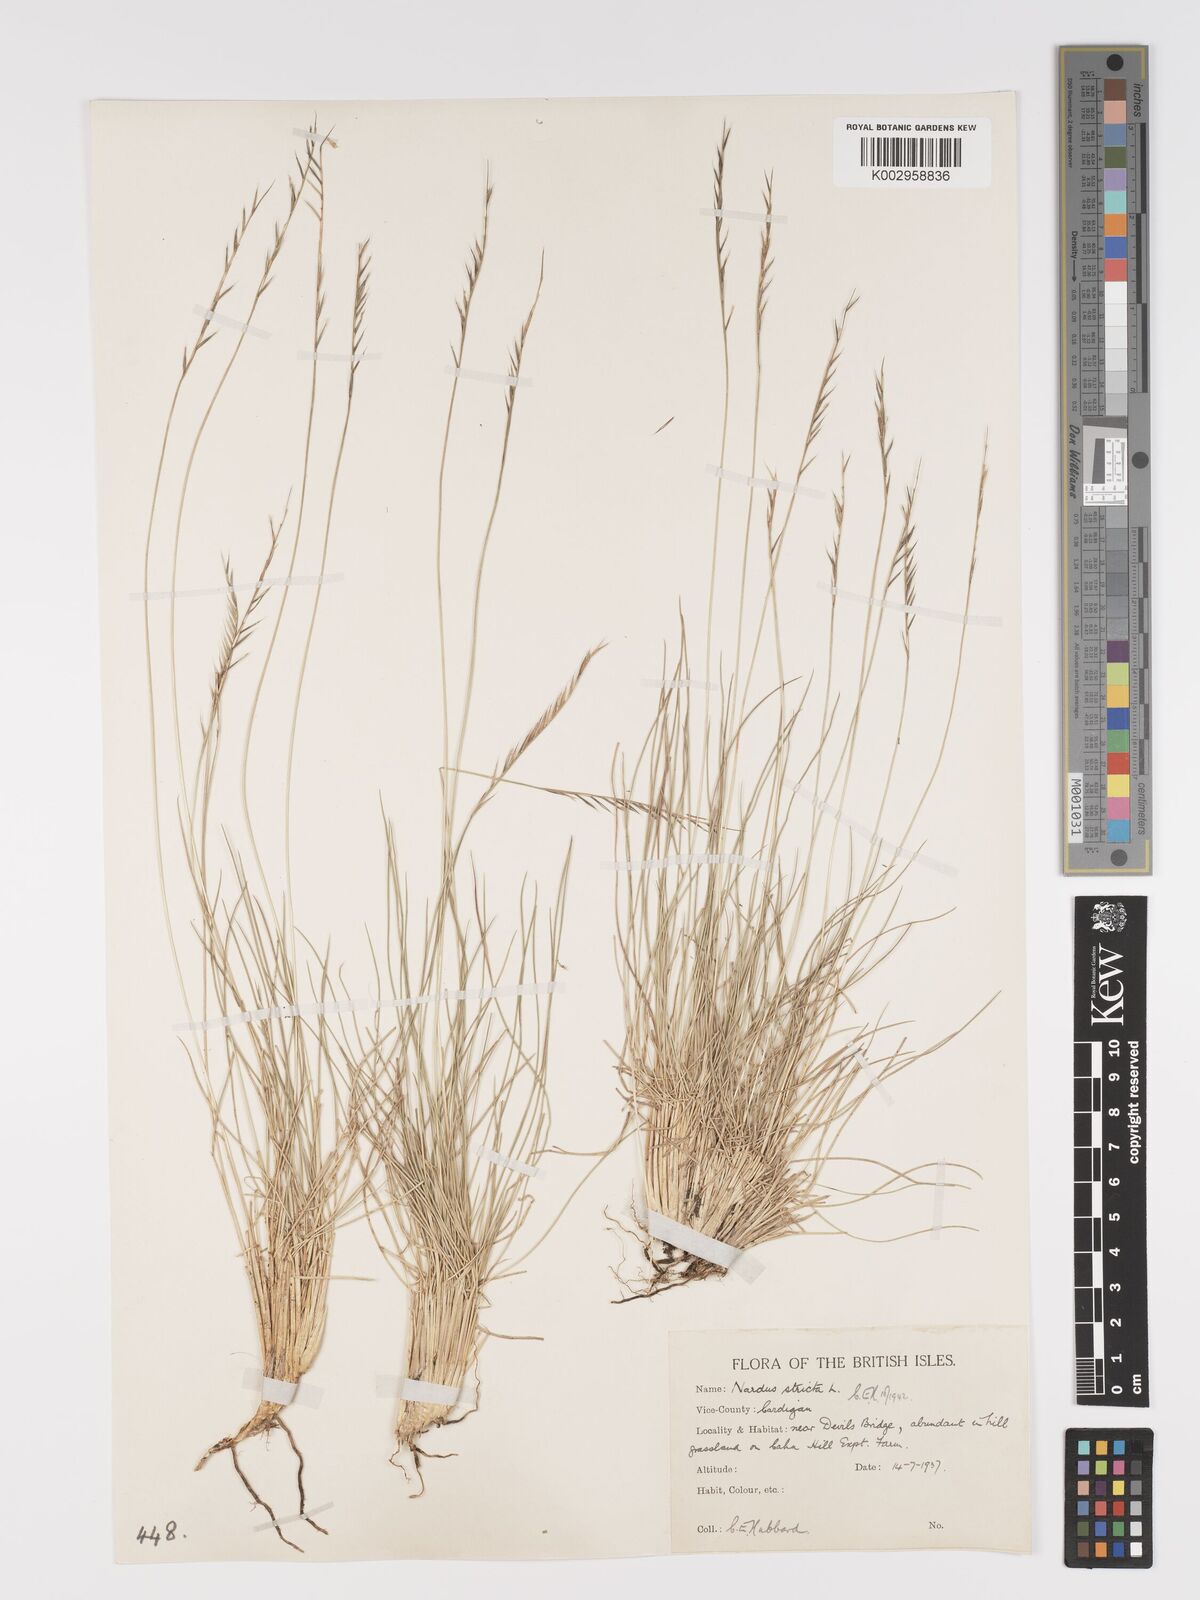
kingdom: Plantae
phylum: Tracheophyta
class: Liliopsida
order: Poales
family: Poaceae
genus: Nardus
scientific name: Nardus stricta
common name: Mat-grass
